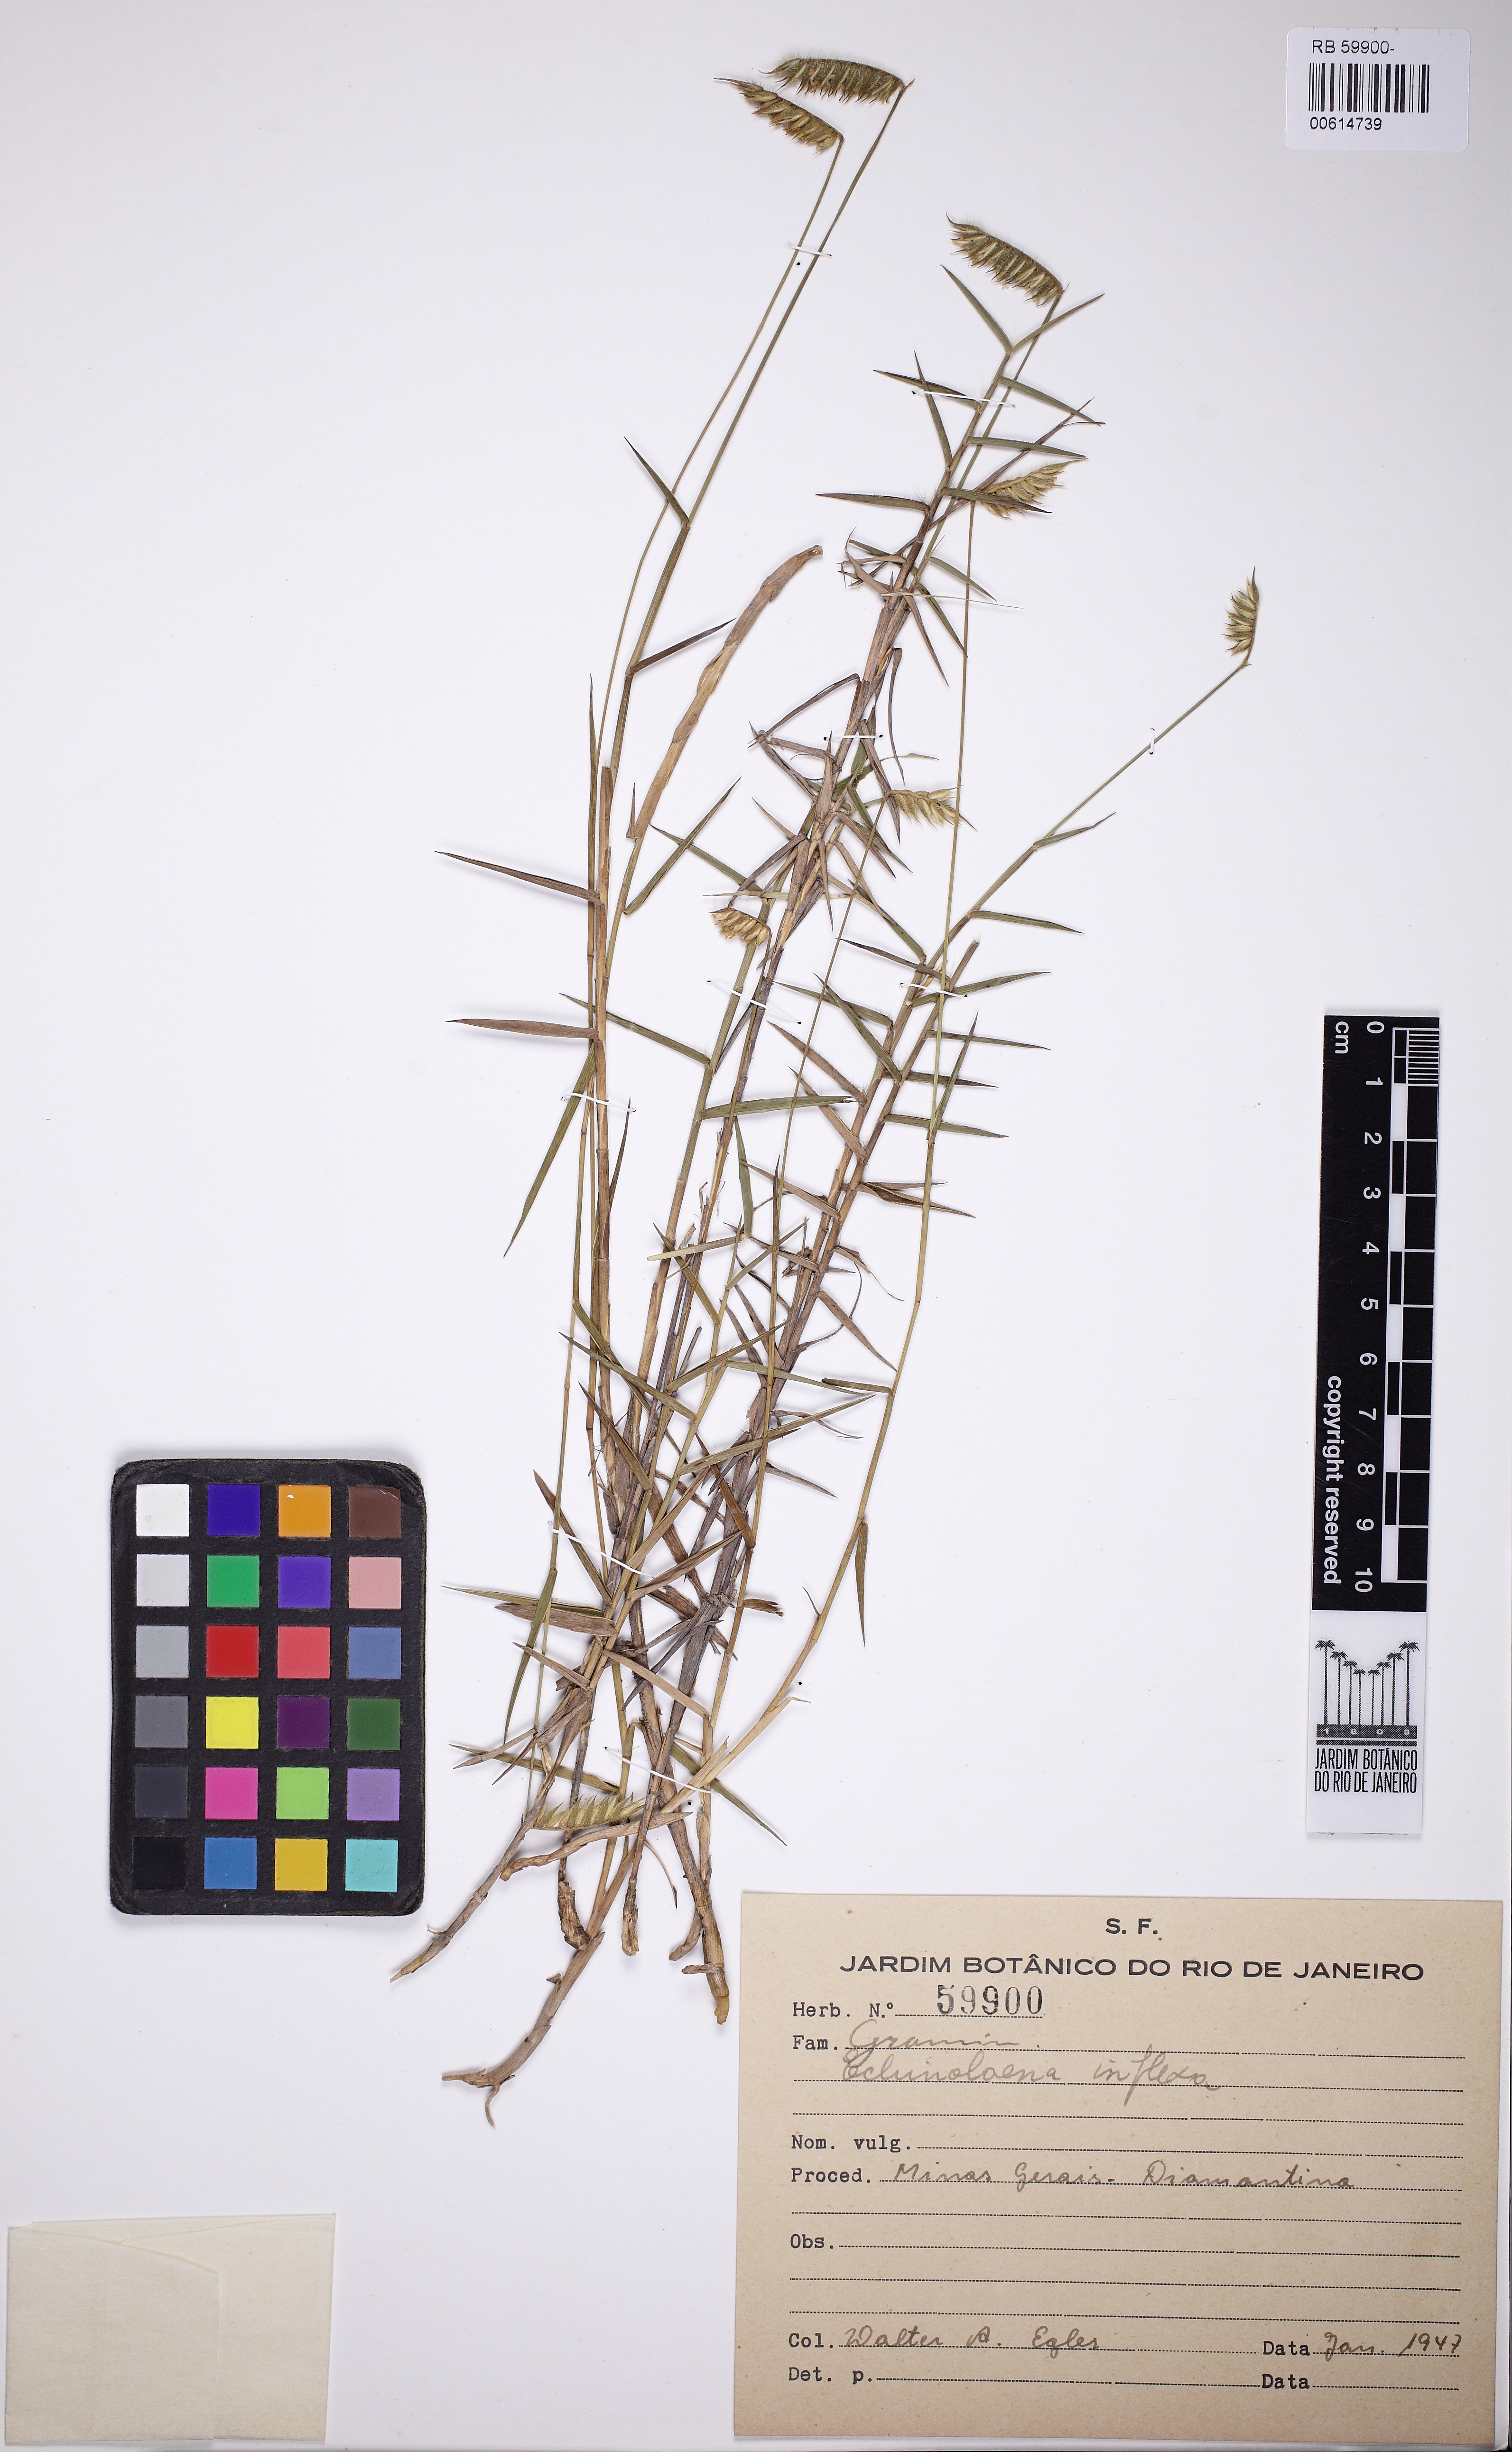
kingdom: Plantae
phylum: Tracheophyta
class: Liliopsida
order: Poales
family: Poaceae
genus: Echinolaena
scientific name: Echinolaena inflexa
